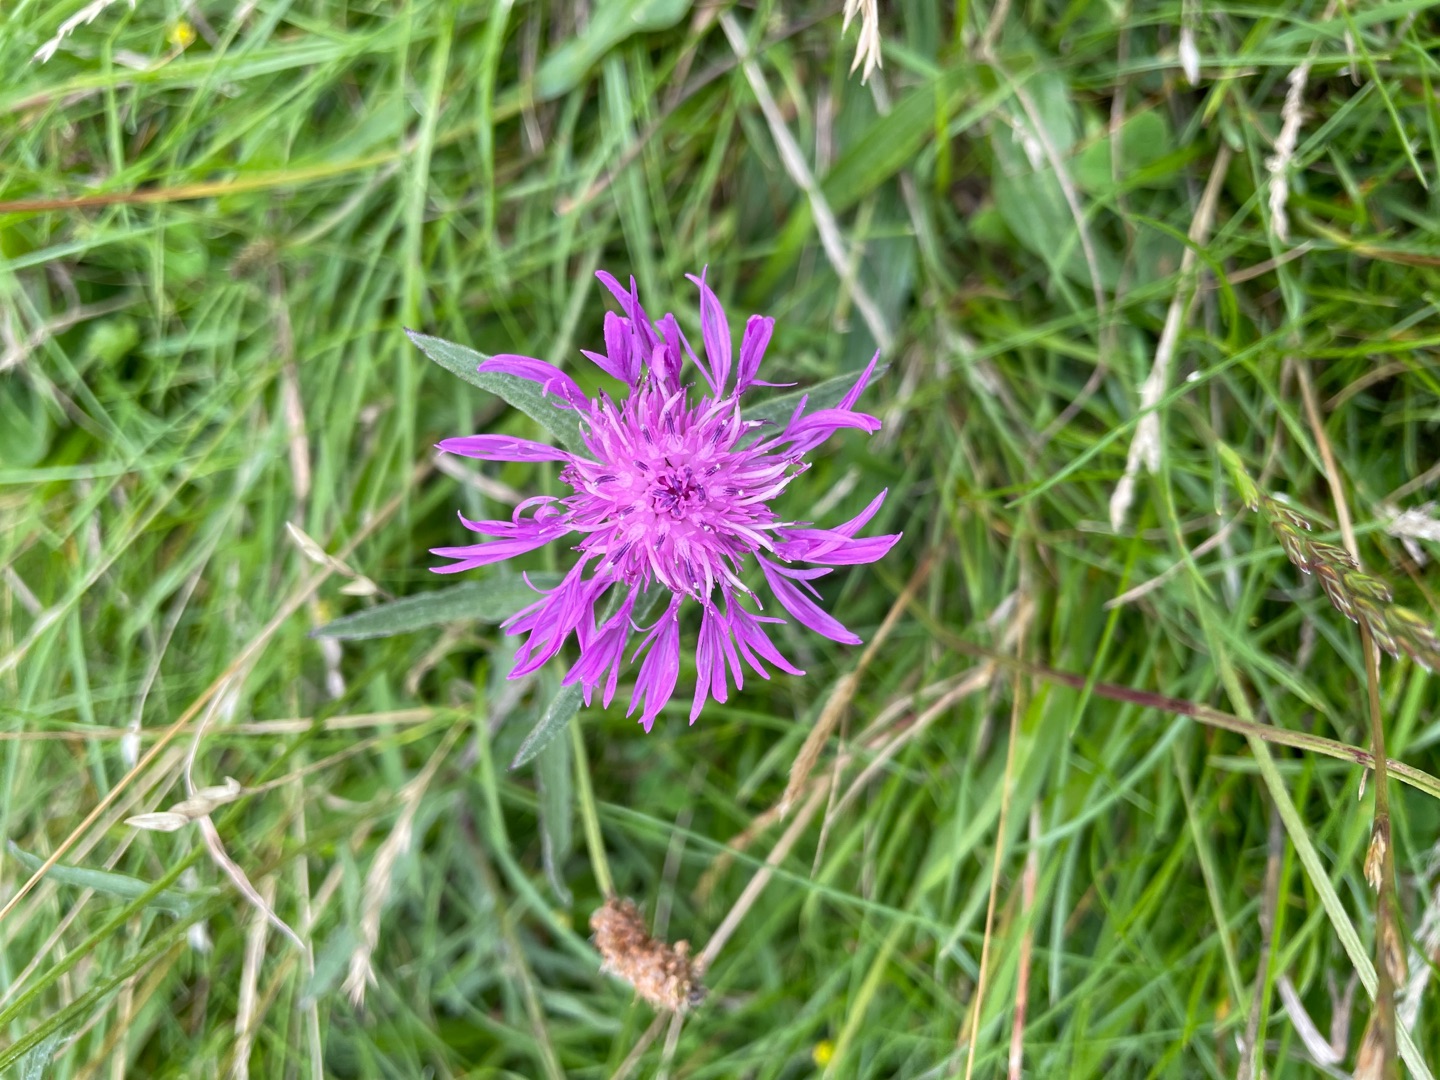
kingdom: Plantae
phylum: Tracheophyta
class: Magnoliopsida
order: Asterales
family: Asteraceae
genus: Centaurea
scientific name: Centaurea jacea
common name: Almindelig knopurt
